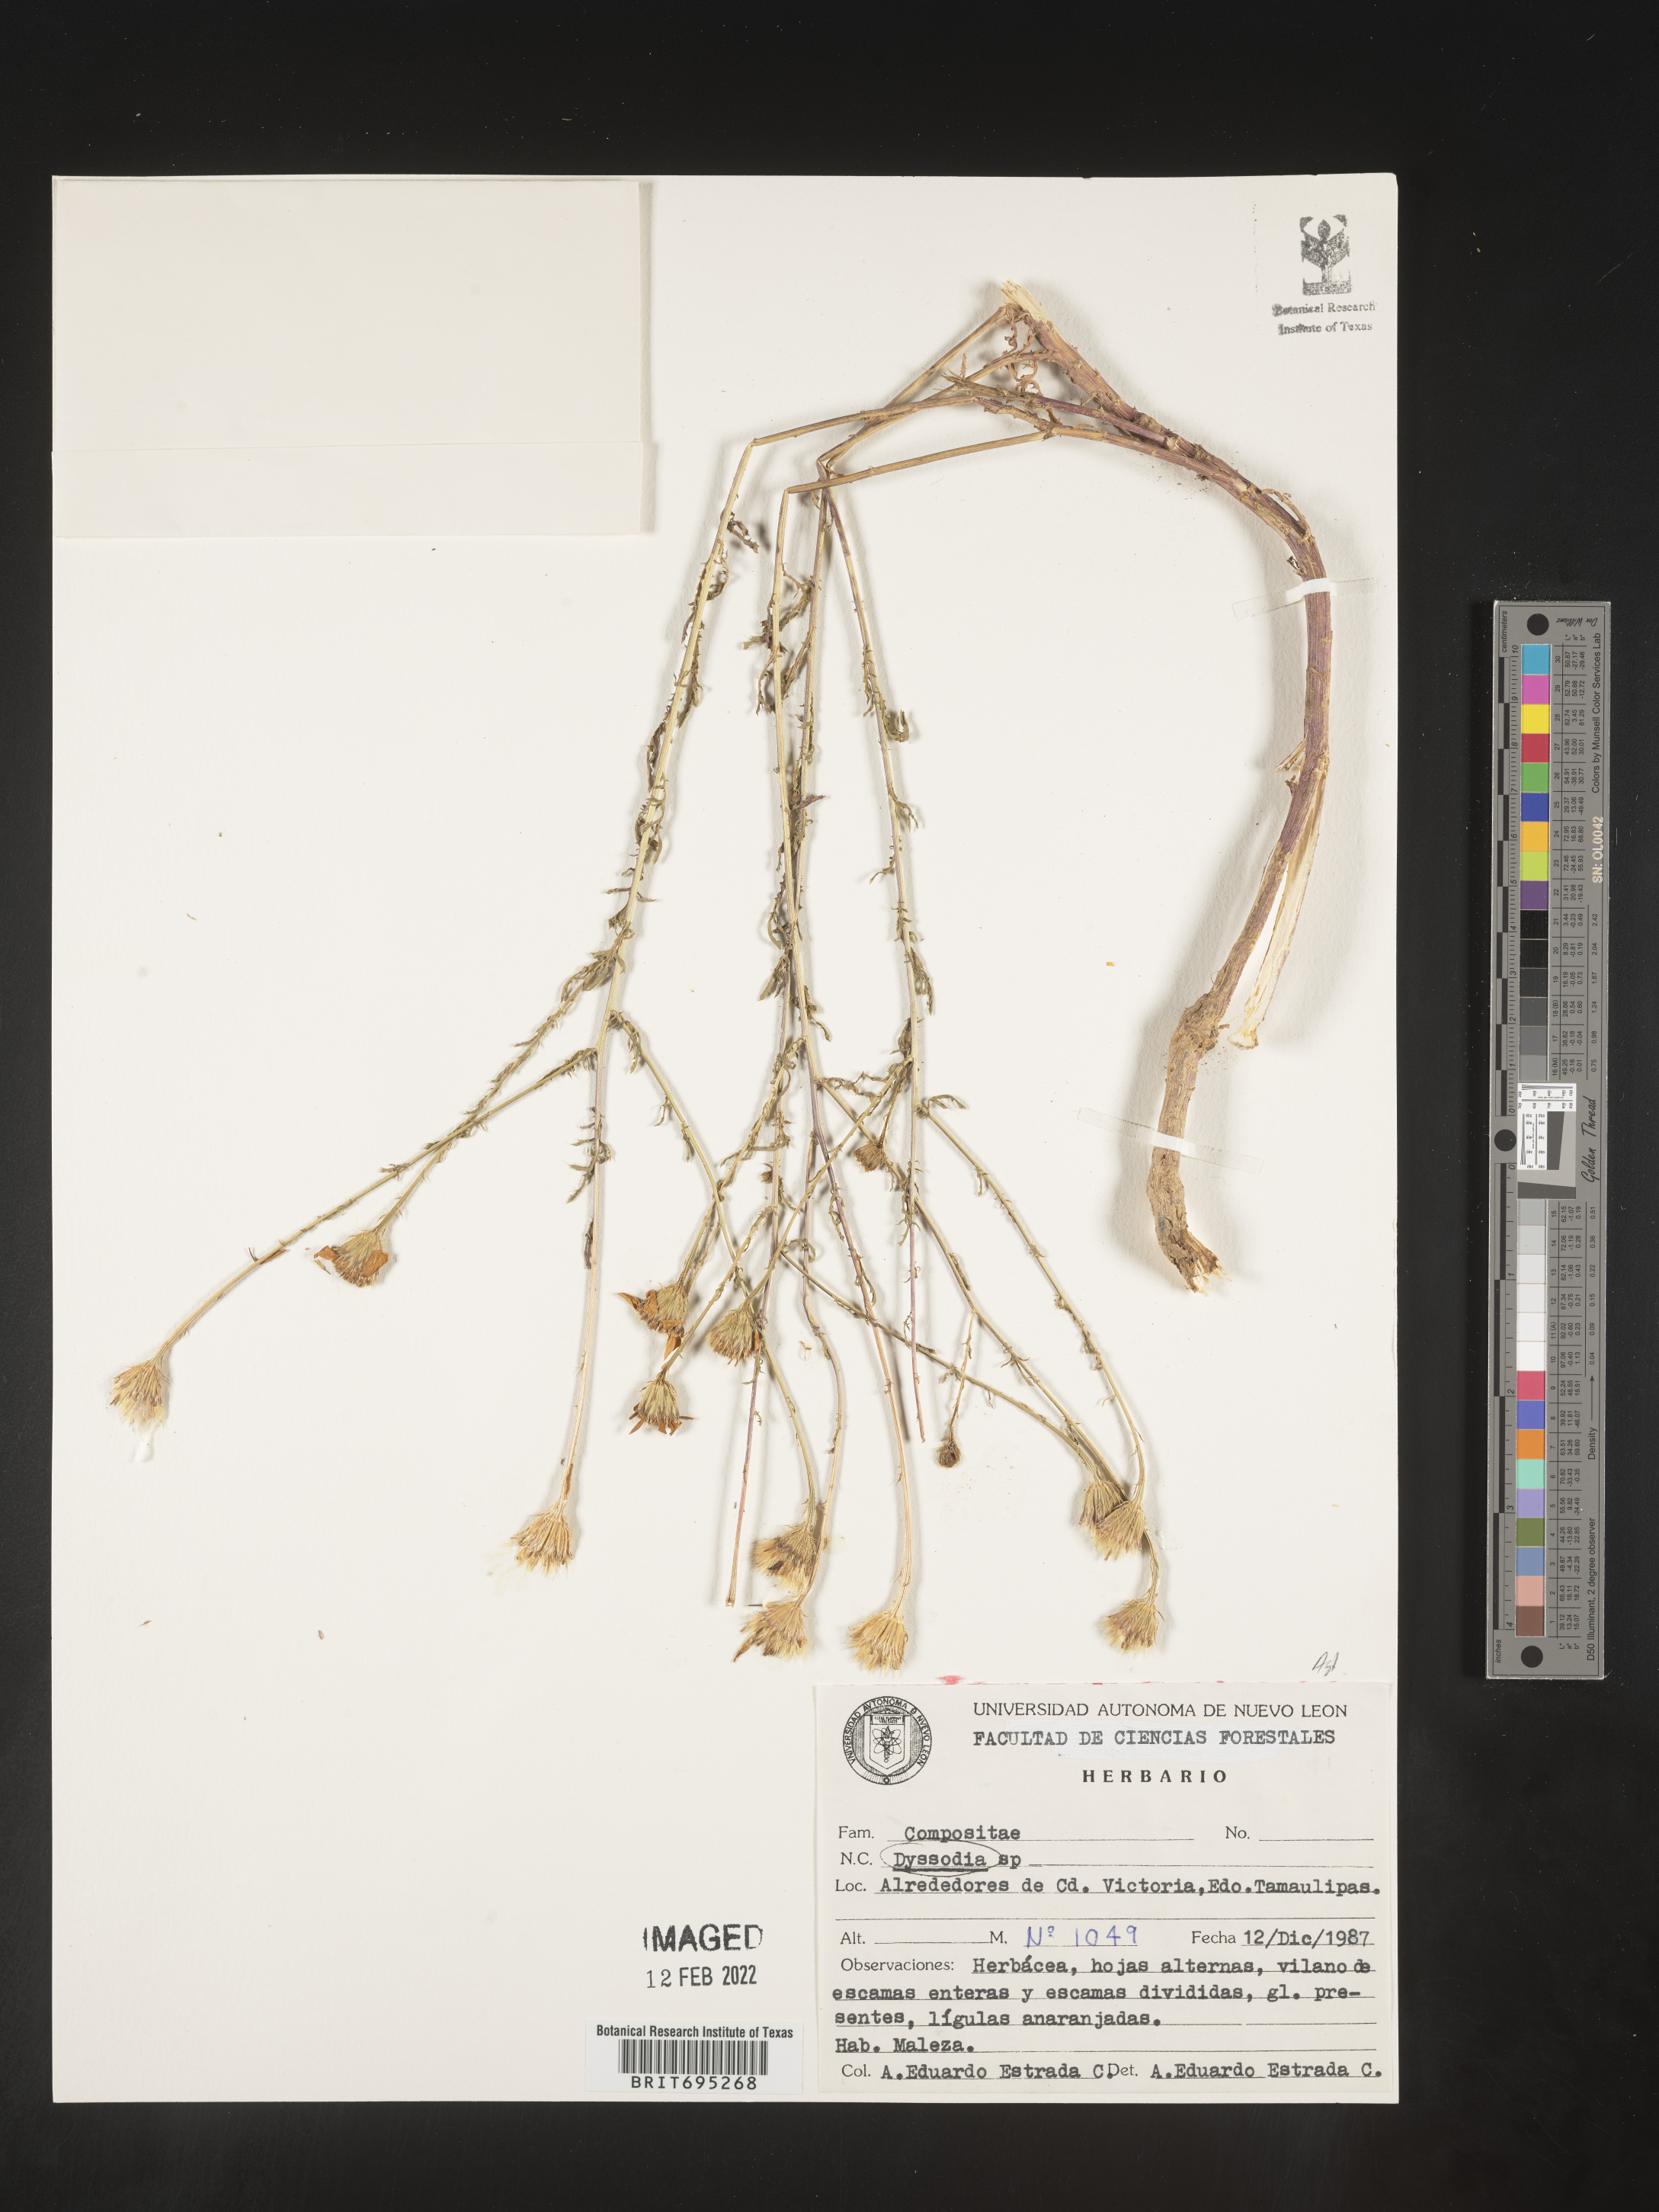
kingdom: Plantae
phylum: Tracheophyta
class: Magnoliopsida
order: Asterales
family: Asteraceae
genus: Dyssodia
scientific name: Dyssodia
